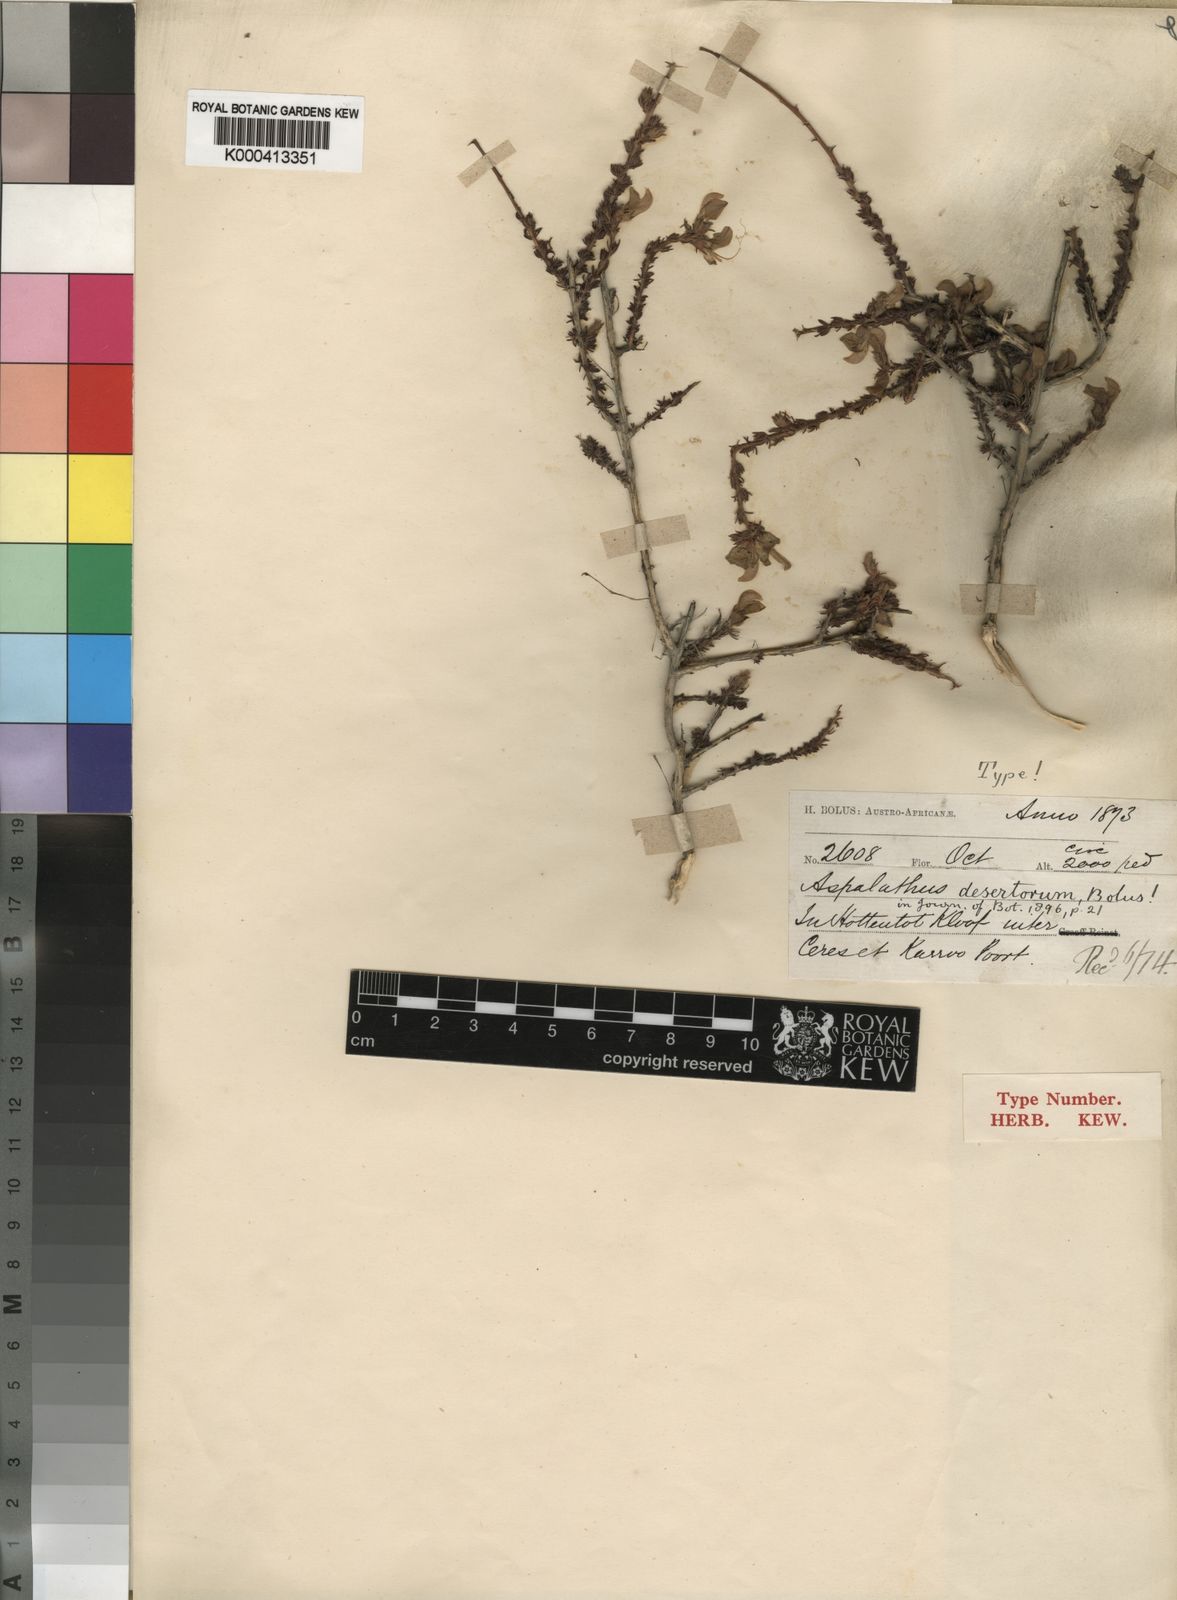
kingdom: Plantae
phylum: Tracheophyta
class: Magnoliopsida
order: Fabales
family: Fabaceae
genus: Aspalathus
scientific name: Aspalathus desertorum
